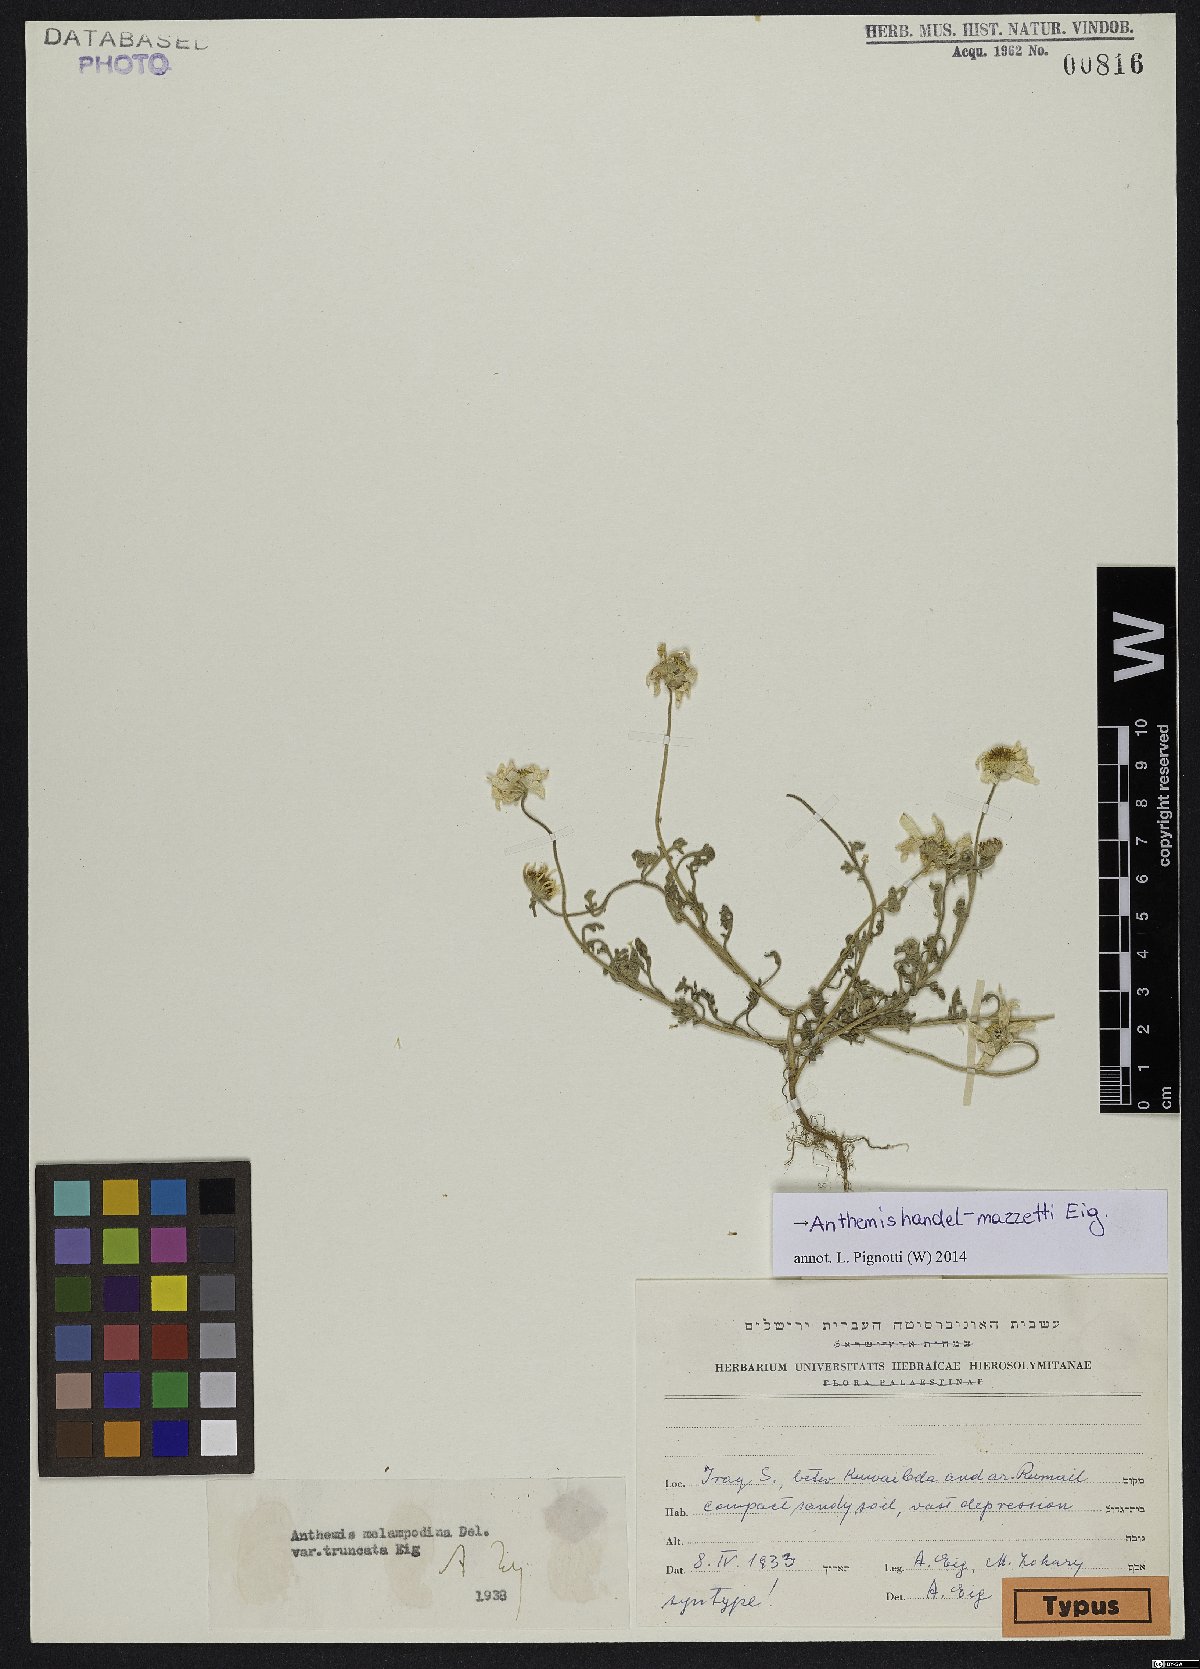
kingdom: Plantae
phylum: Tracheophyta
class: Magnoliopsida
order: Asterales
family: Asteraceae
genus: Anthemis
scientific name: Anthemis handel-mazzettii
